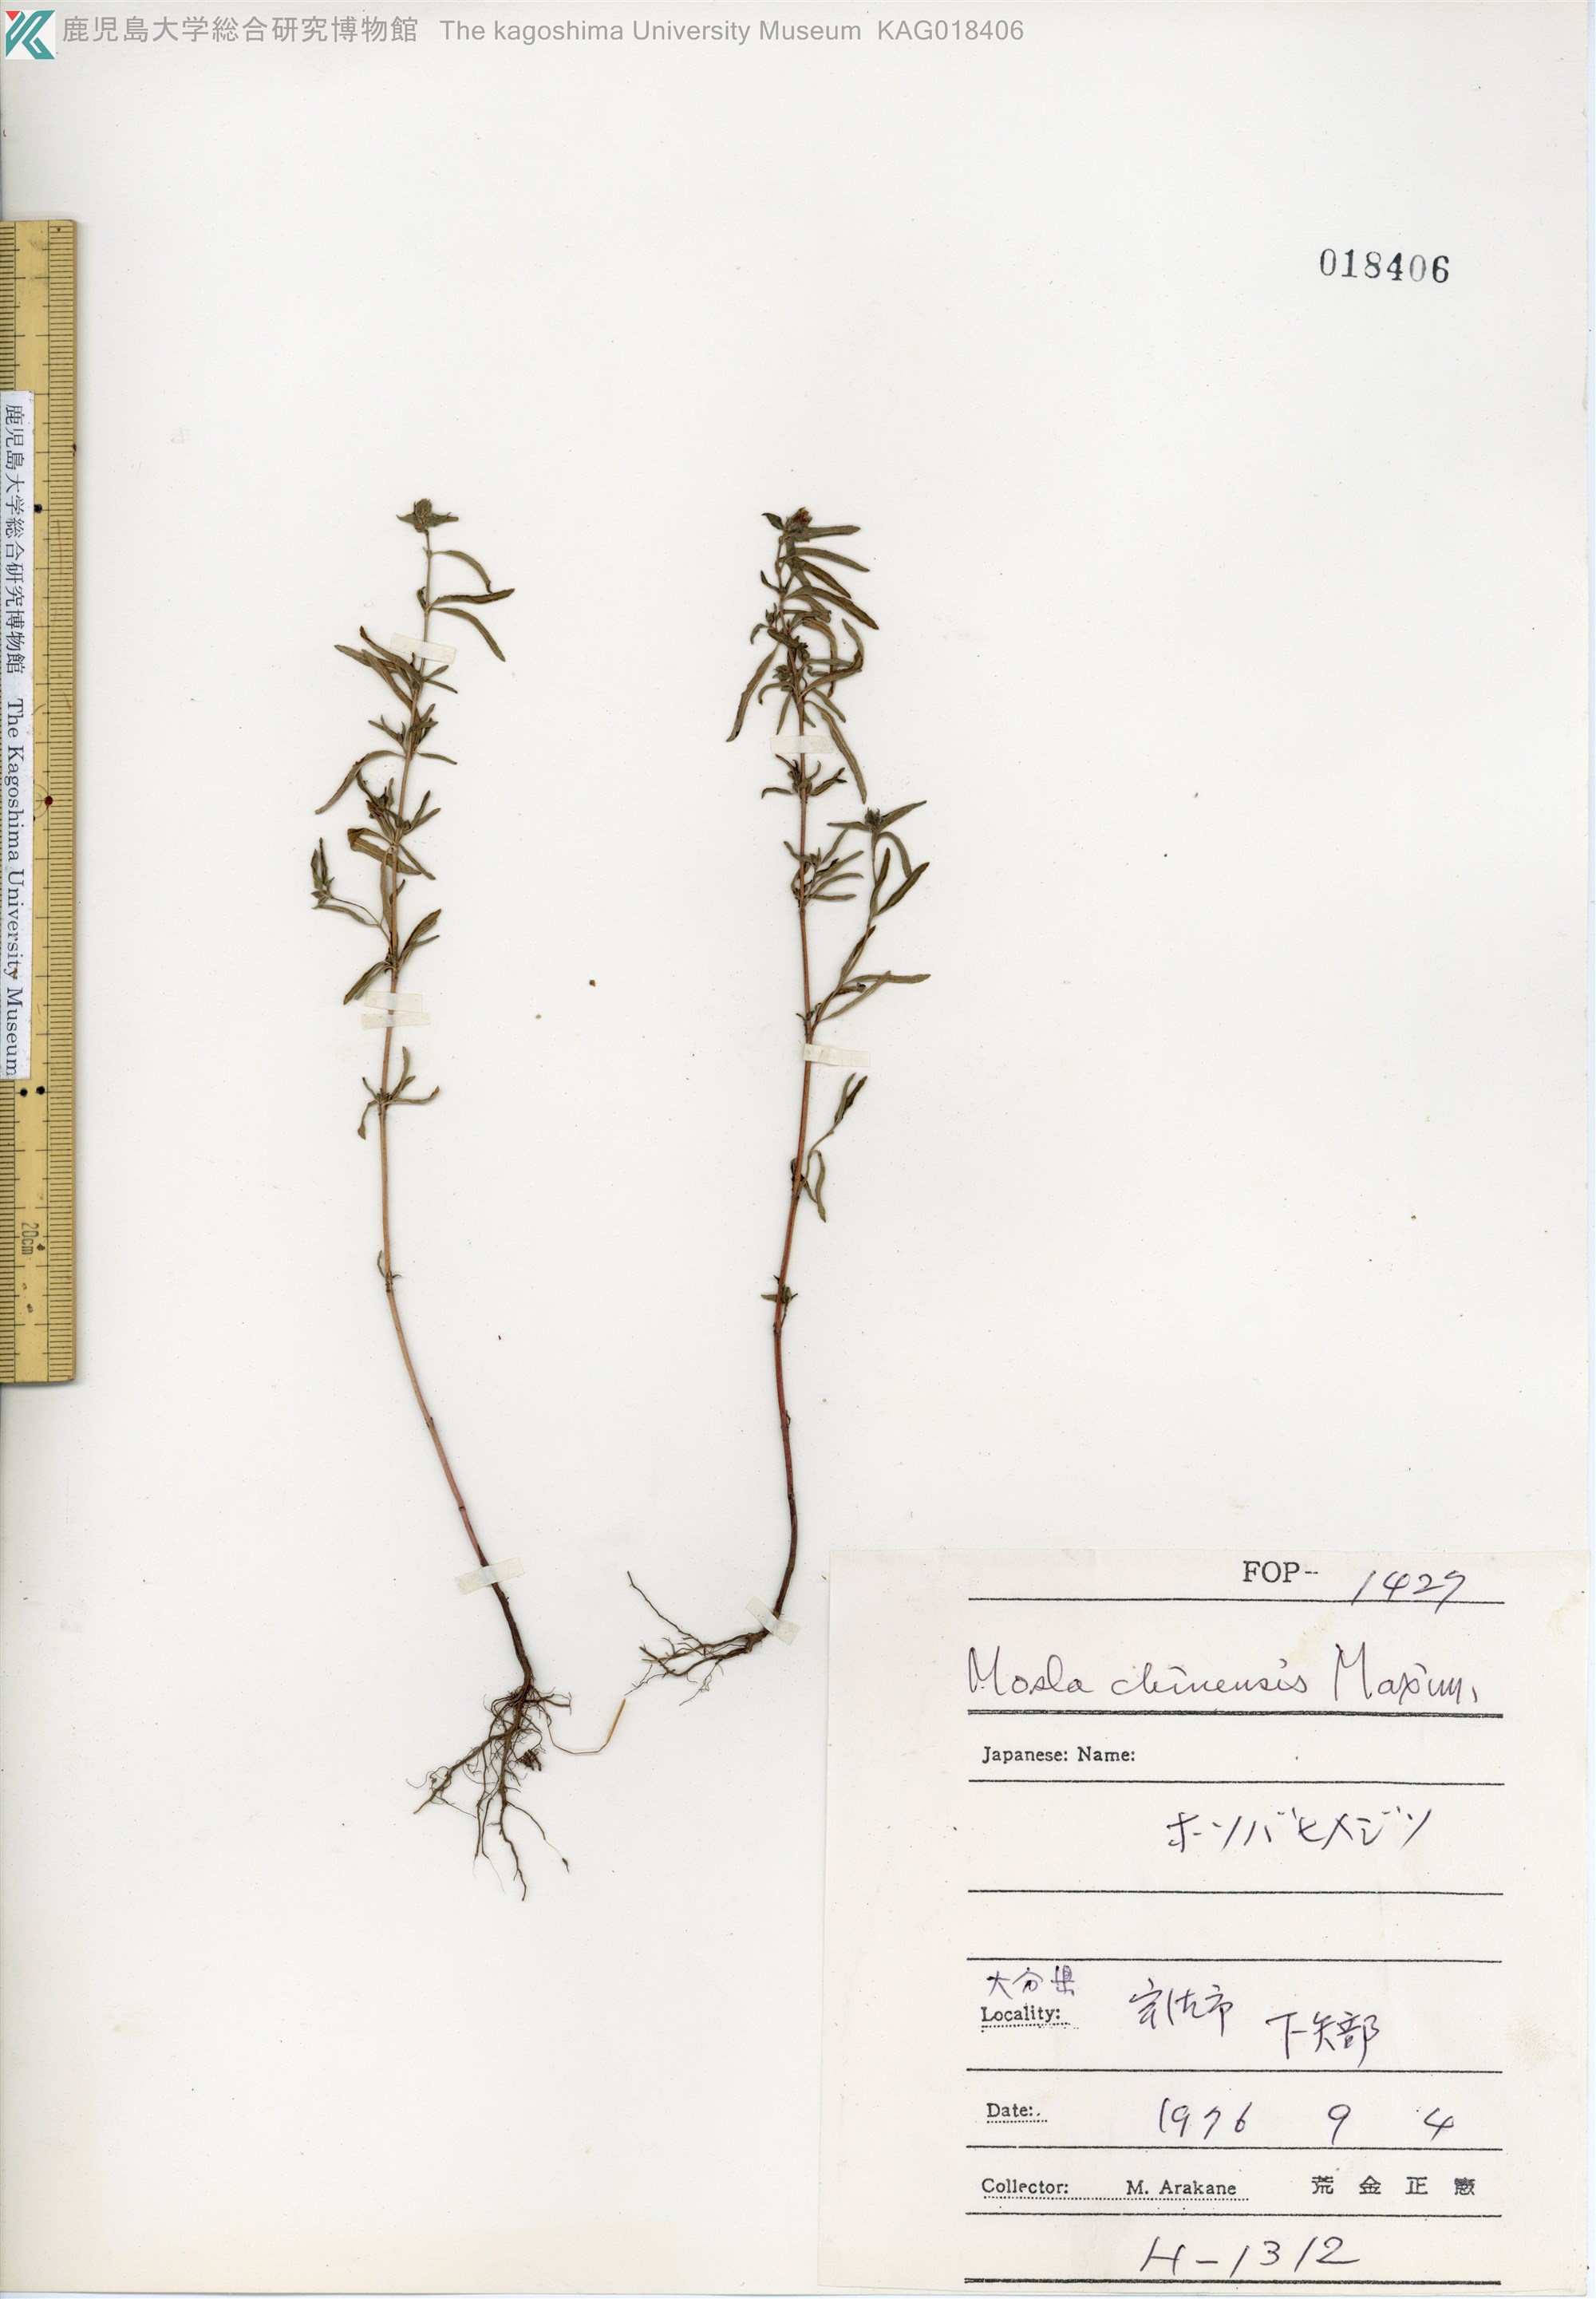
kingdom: Plantae
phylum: Tracheophyta
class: Magnoliopsida
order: Lamiales
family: Lamiaceae
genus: Mosla
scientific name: Mosla chinensis
